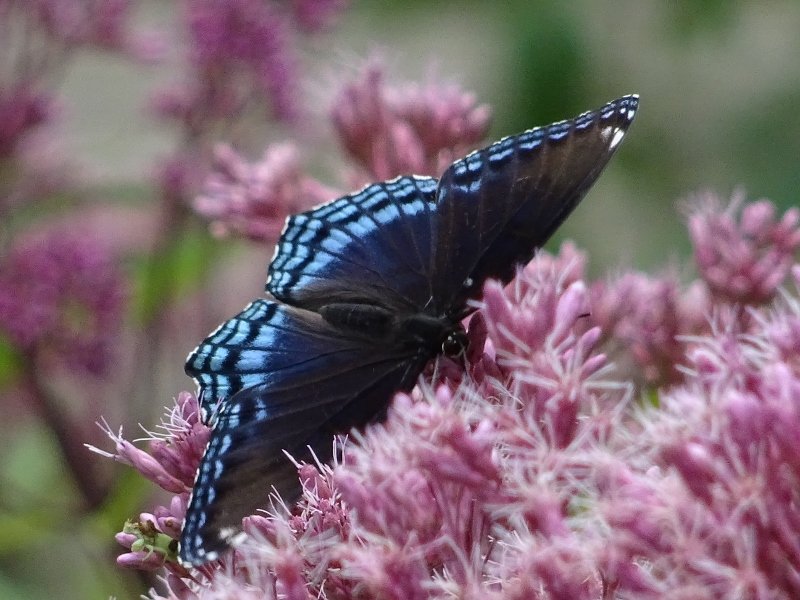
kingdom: Animalia
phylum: Arthropoda
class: Insecta
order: Lepidoptera
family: Nymphalidae
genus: Limenitis
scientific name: Limenitis astyanax
